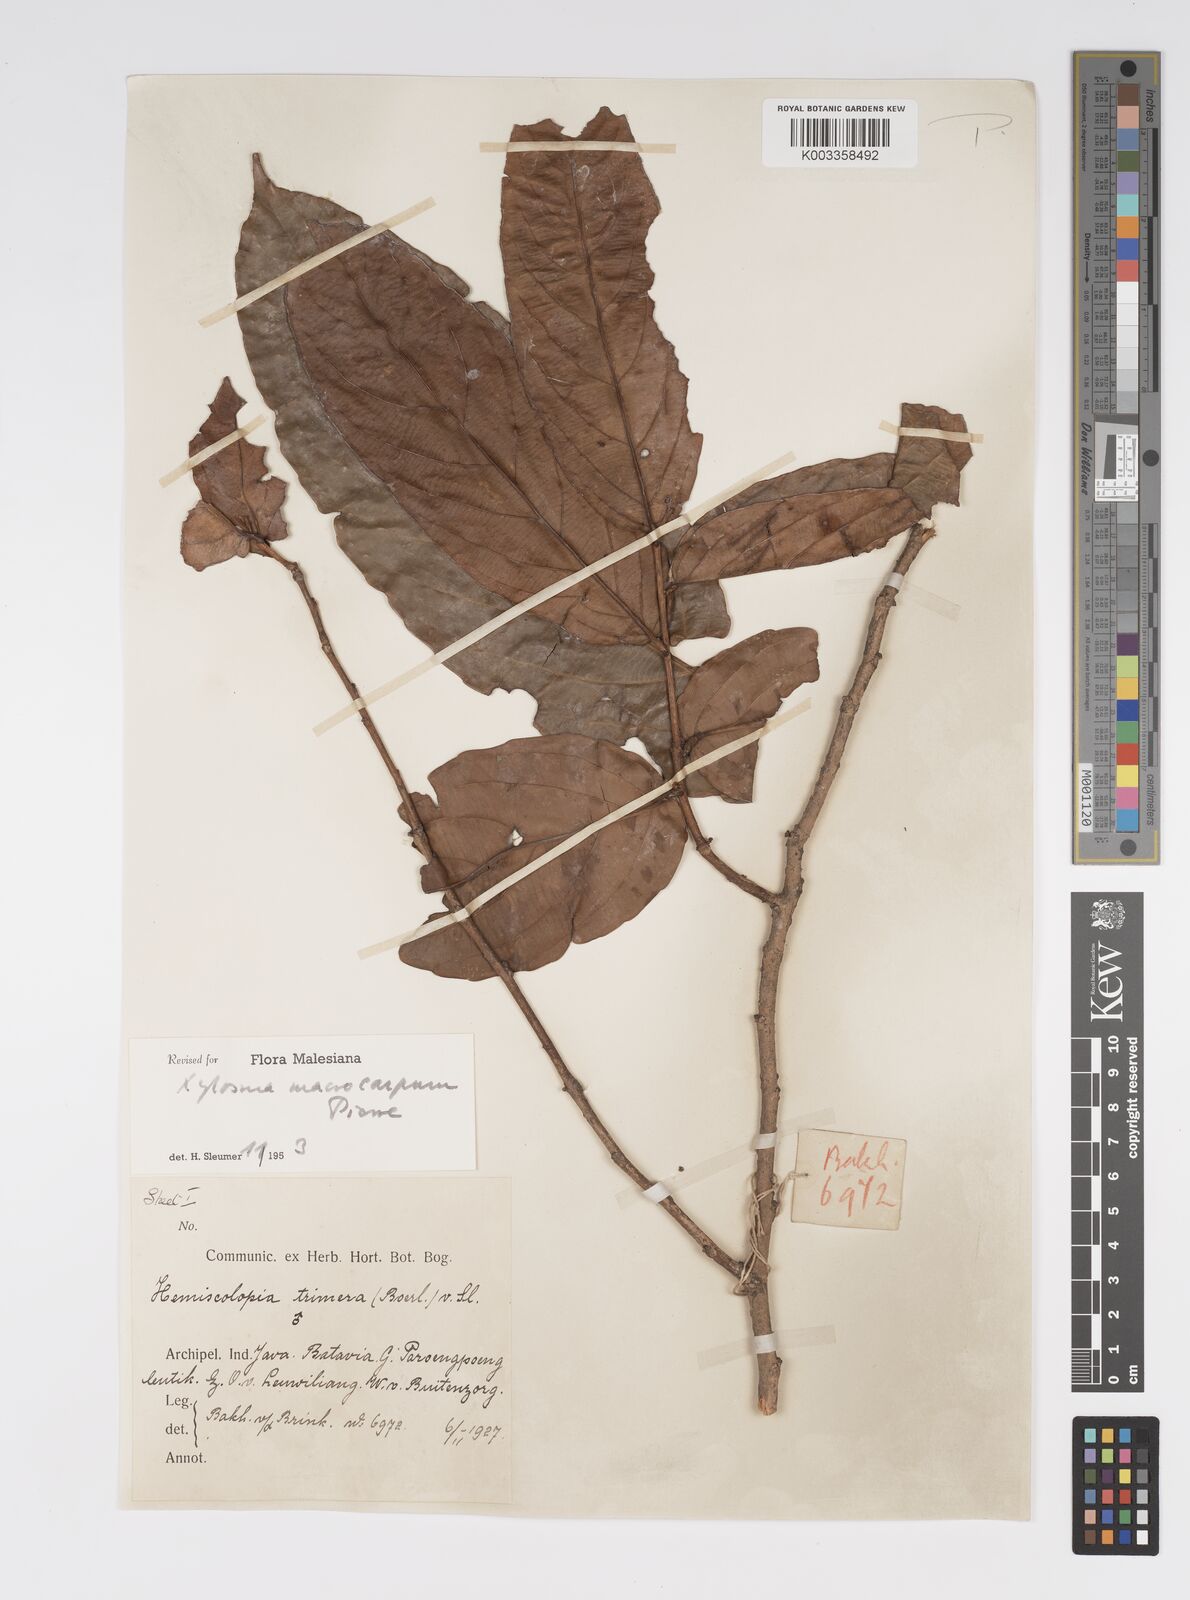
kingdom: Plantae
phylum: Tracheophyta
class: Magnoliopsida
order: Malpighiales
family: Salicaceae
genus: Hemiscolopia
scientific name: Hemiscolopia trimera
